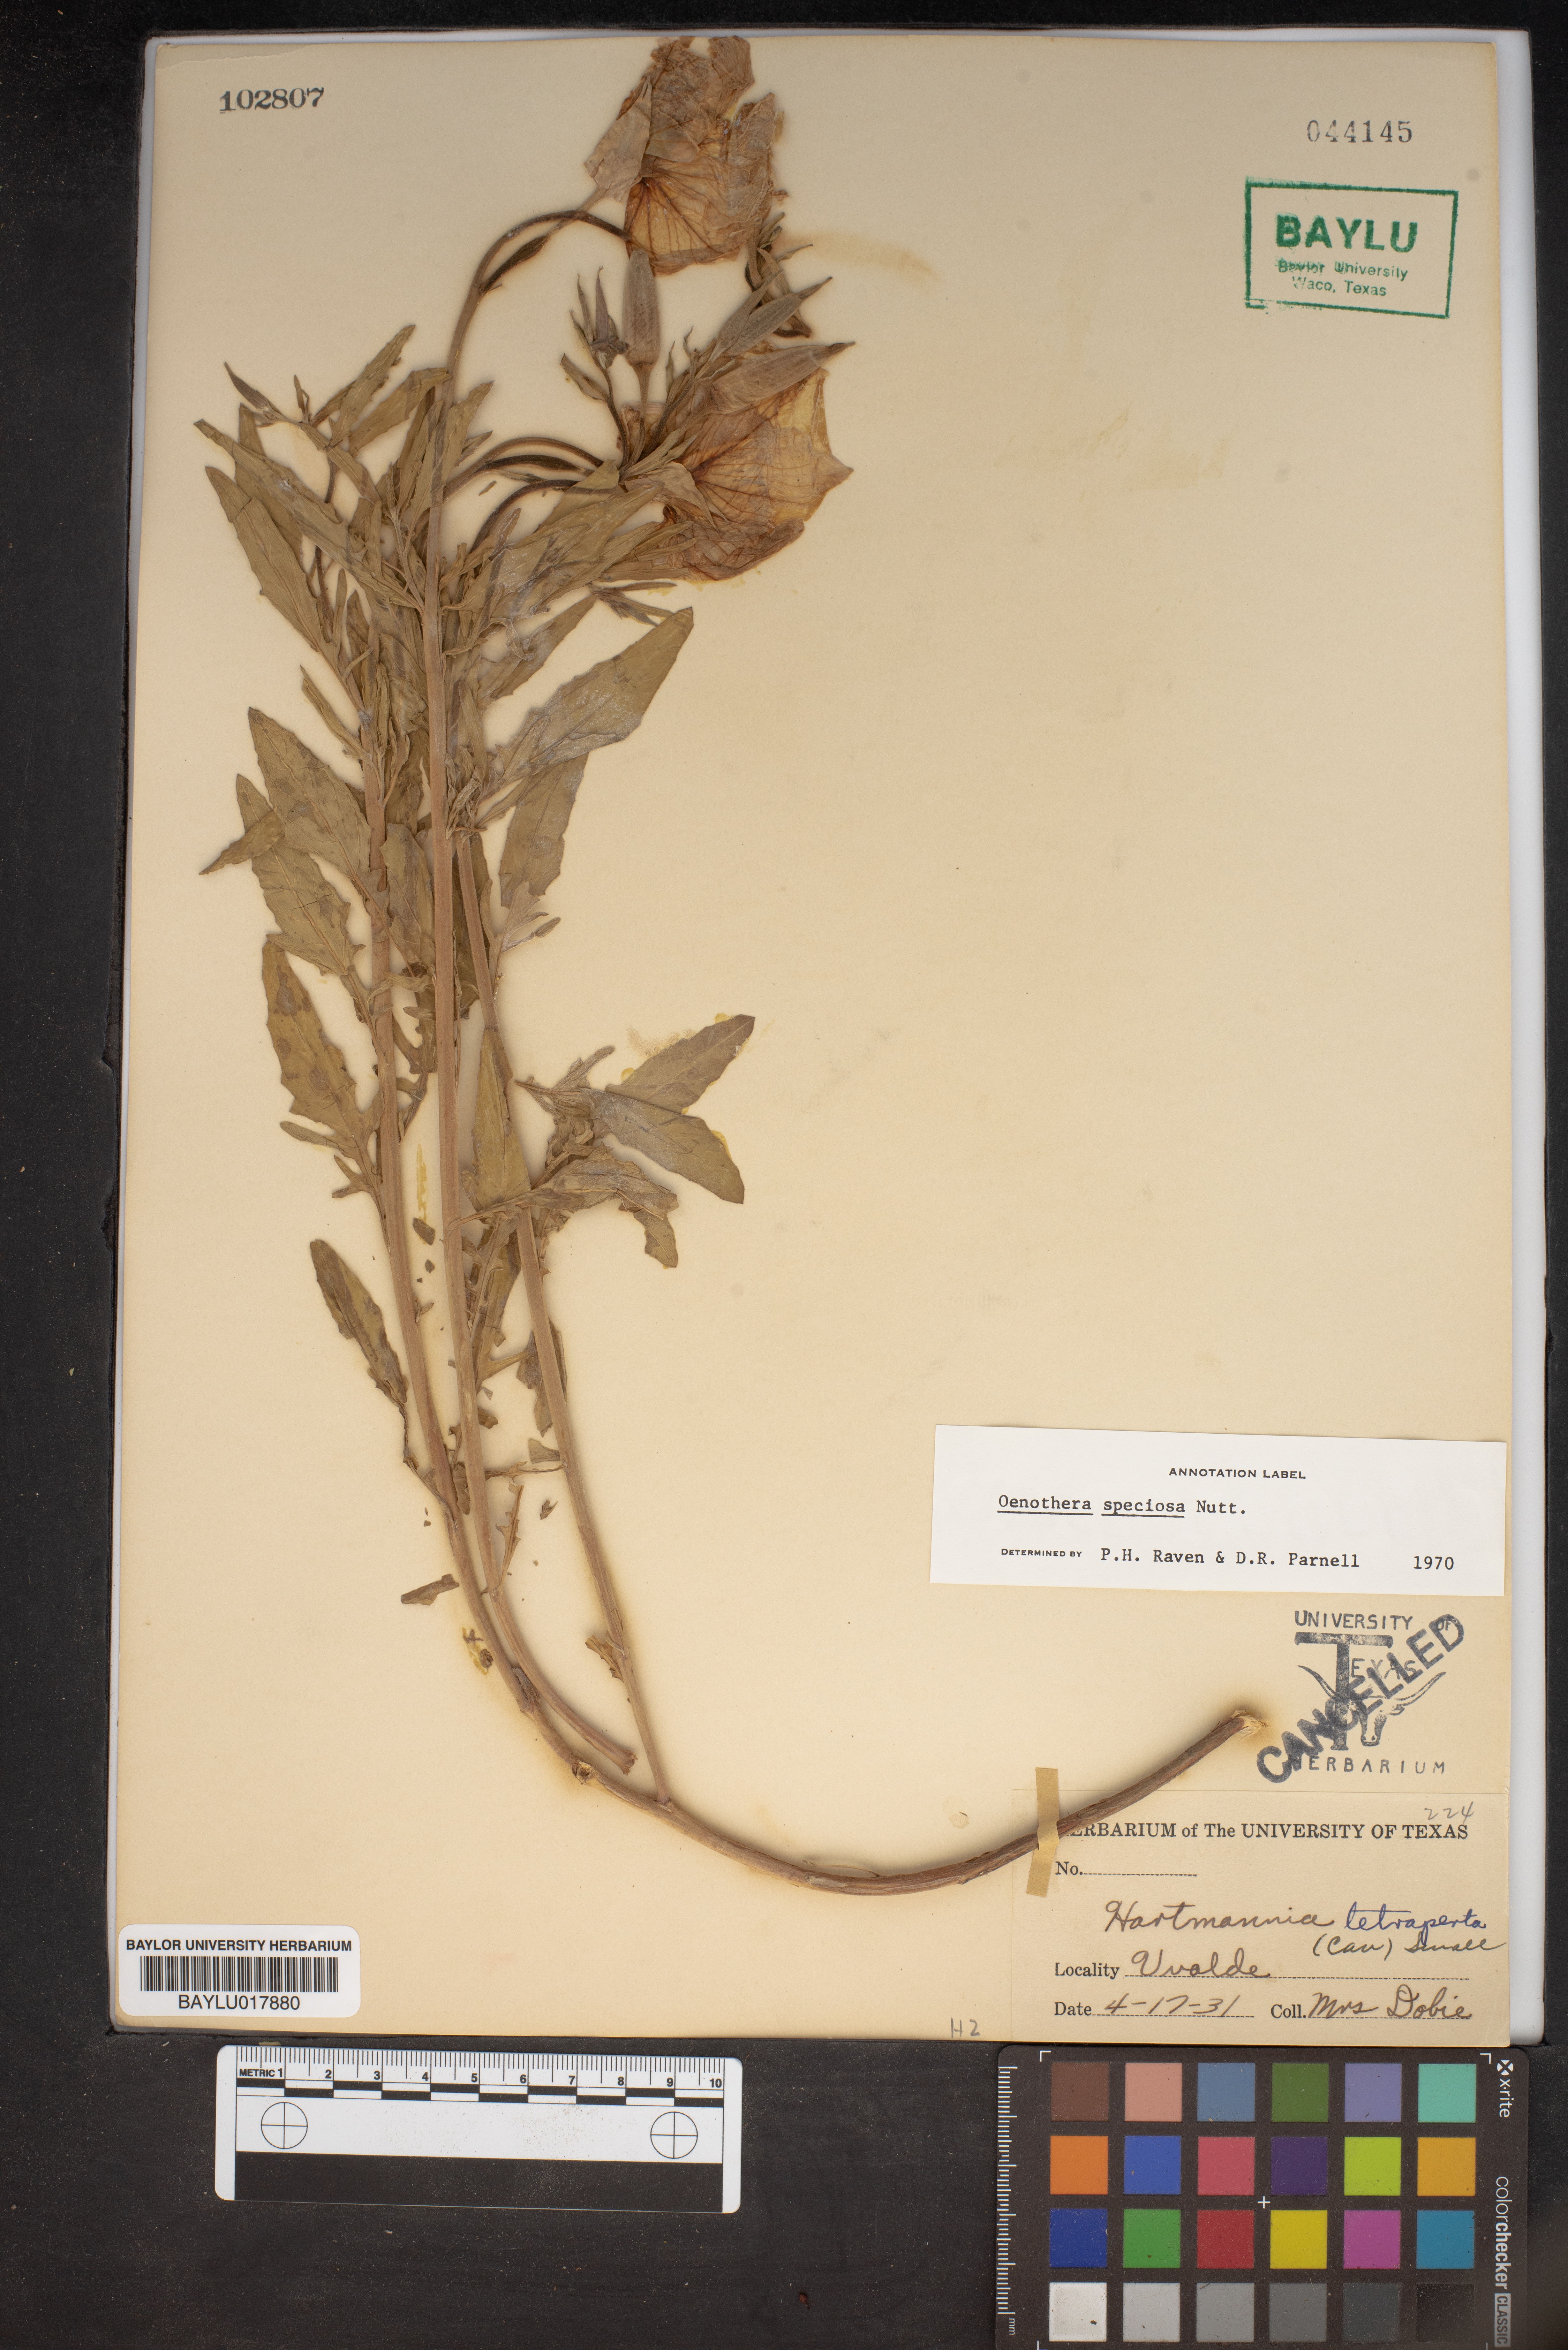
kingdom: Plantae
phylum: Tracheophyta
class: Magnoliopsida
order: Myrtales
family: Onagraceae
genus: Oenothera
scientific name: Oenothera speciosa
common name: White evening-primrose
